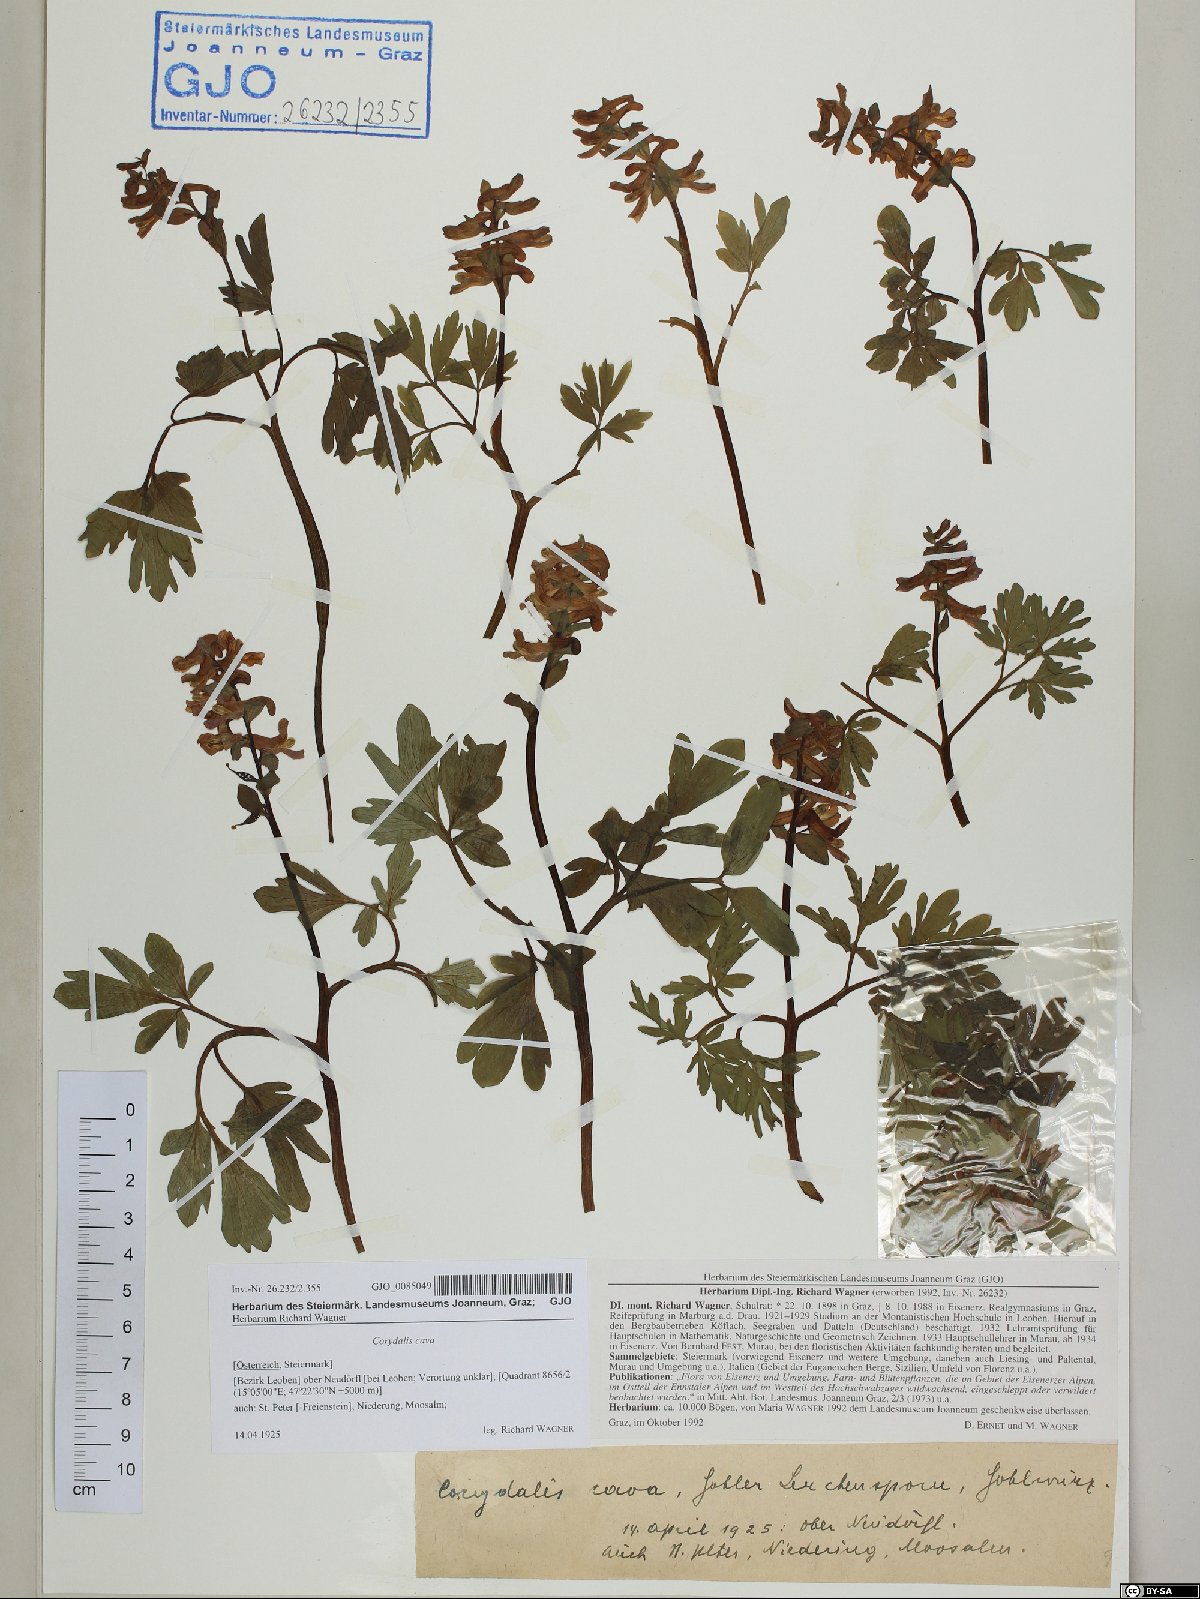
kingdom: Plantae
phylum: Tracheophyta
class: Magnoliopsida
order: Ranunculales
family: Papaveraceae
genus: Corydalis
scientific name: Corydalis cava
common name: Hollowroot
